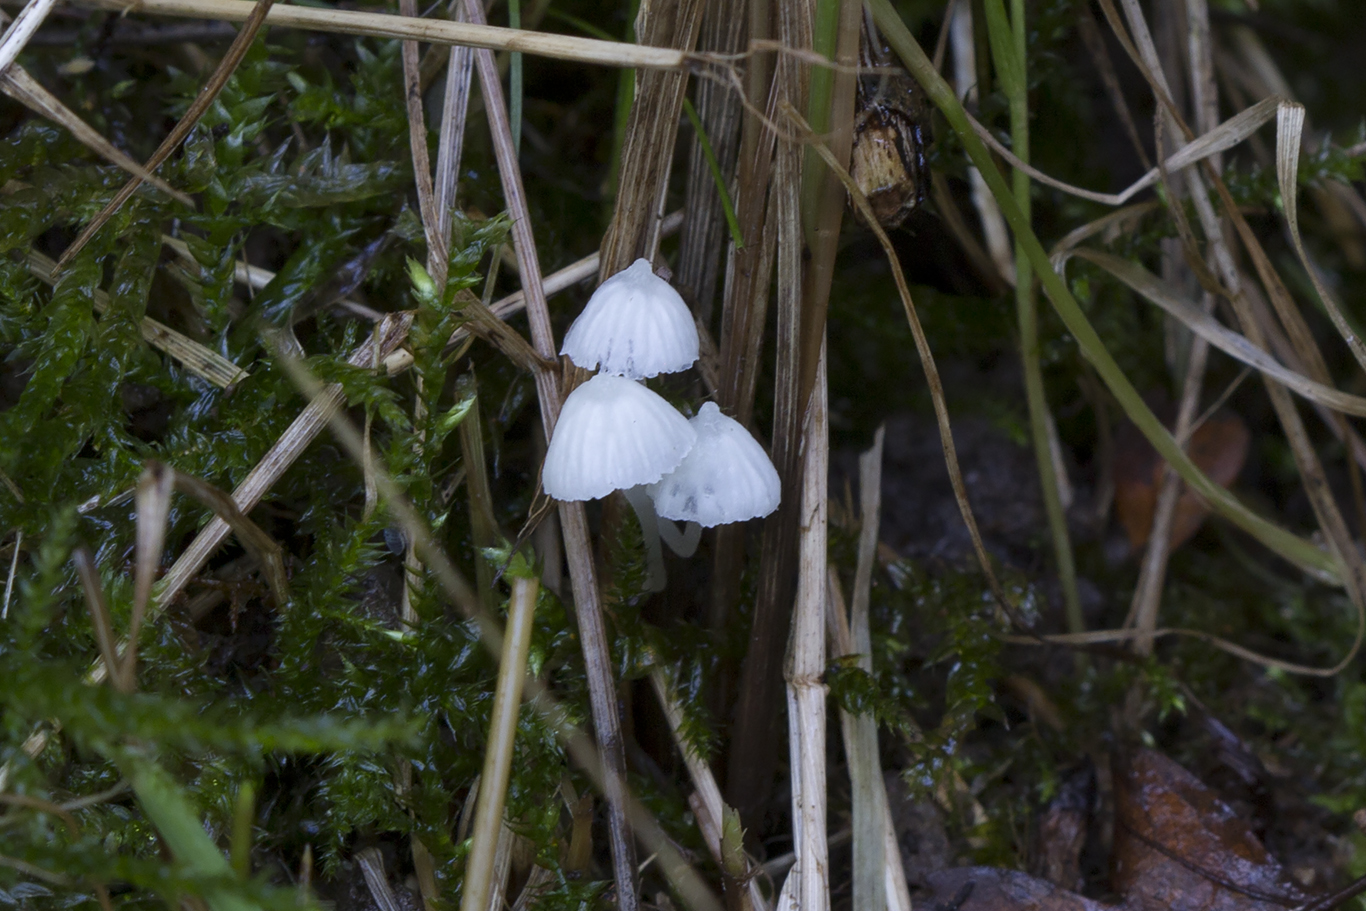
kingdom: Fungi
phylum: Basidiomycota
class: Agaricomycetes
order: Agaricales
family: Mycenaceae
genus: Atheniella
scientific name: Atheniella delectabilis
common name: nitrøs huesvamp
